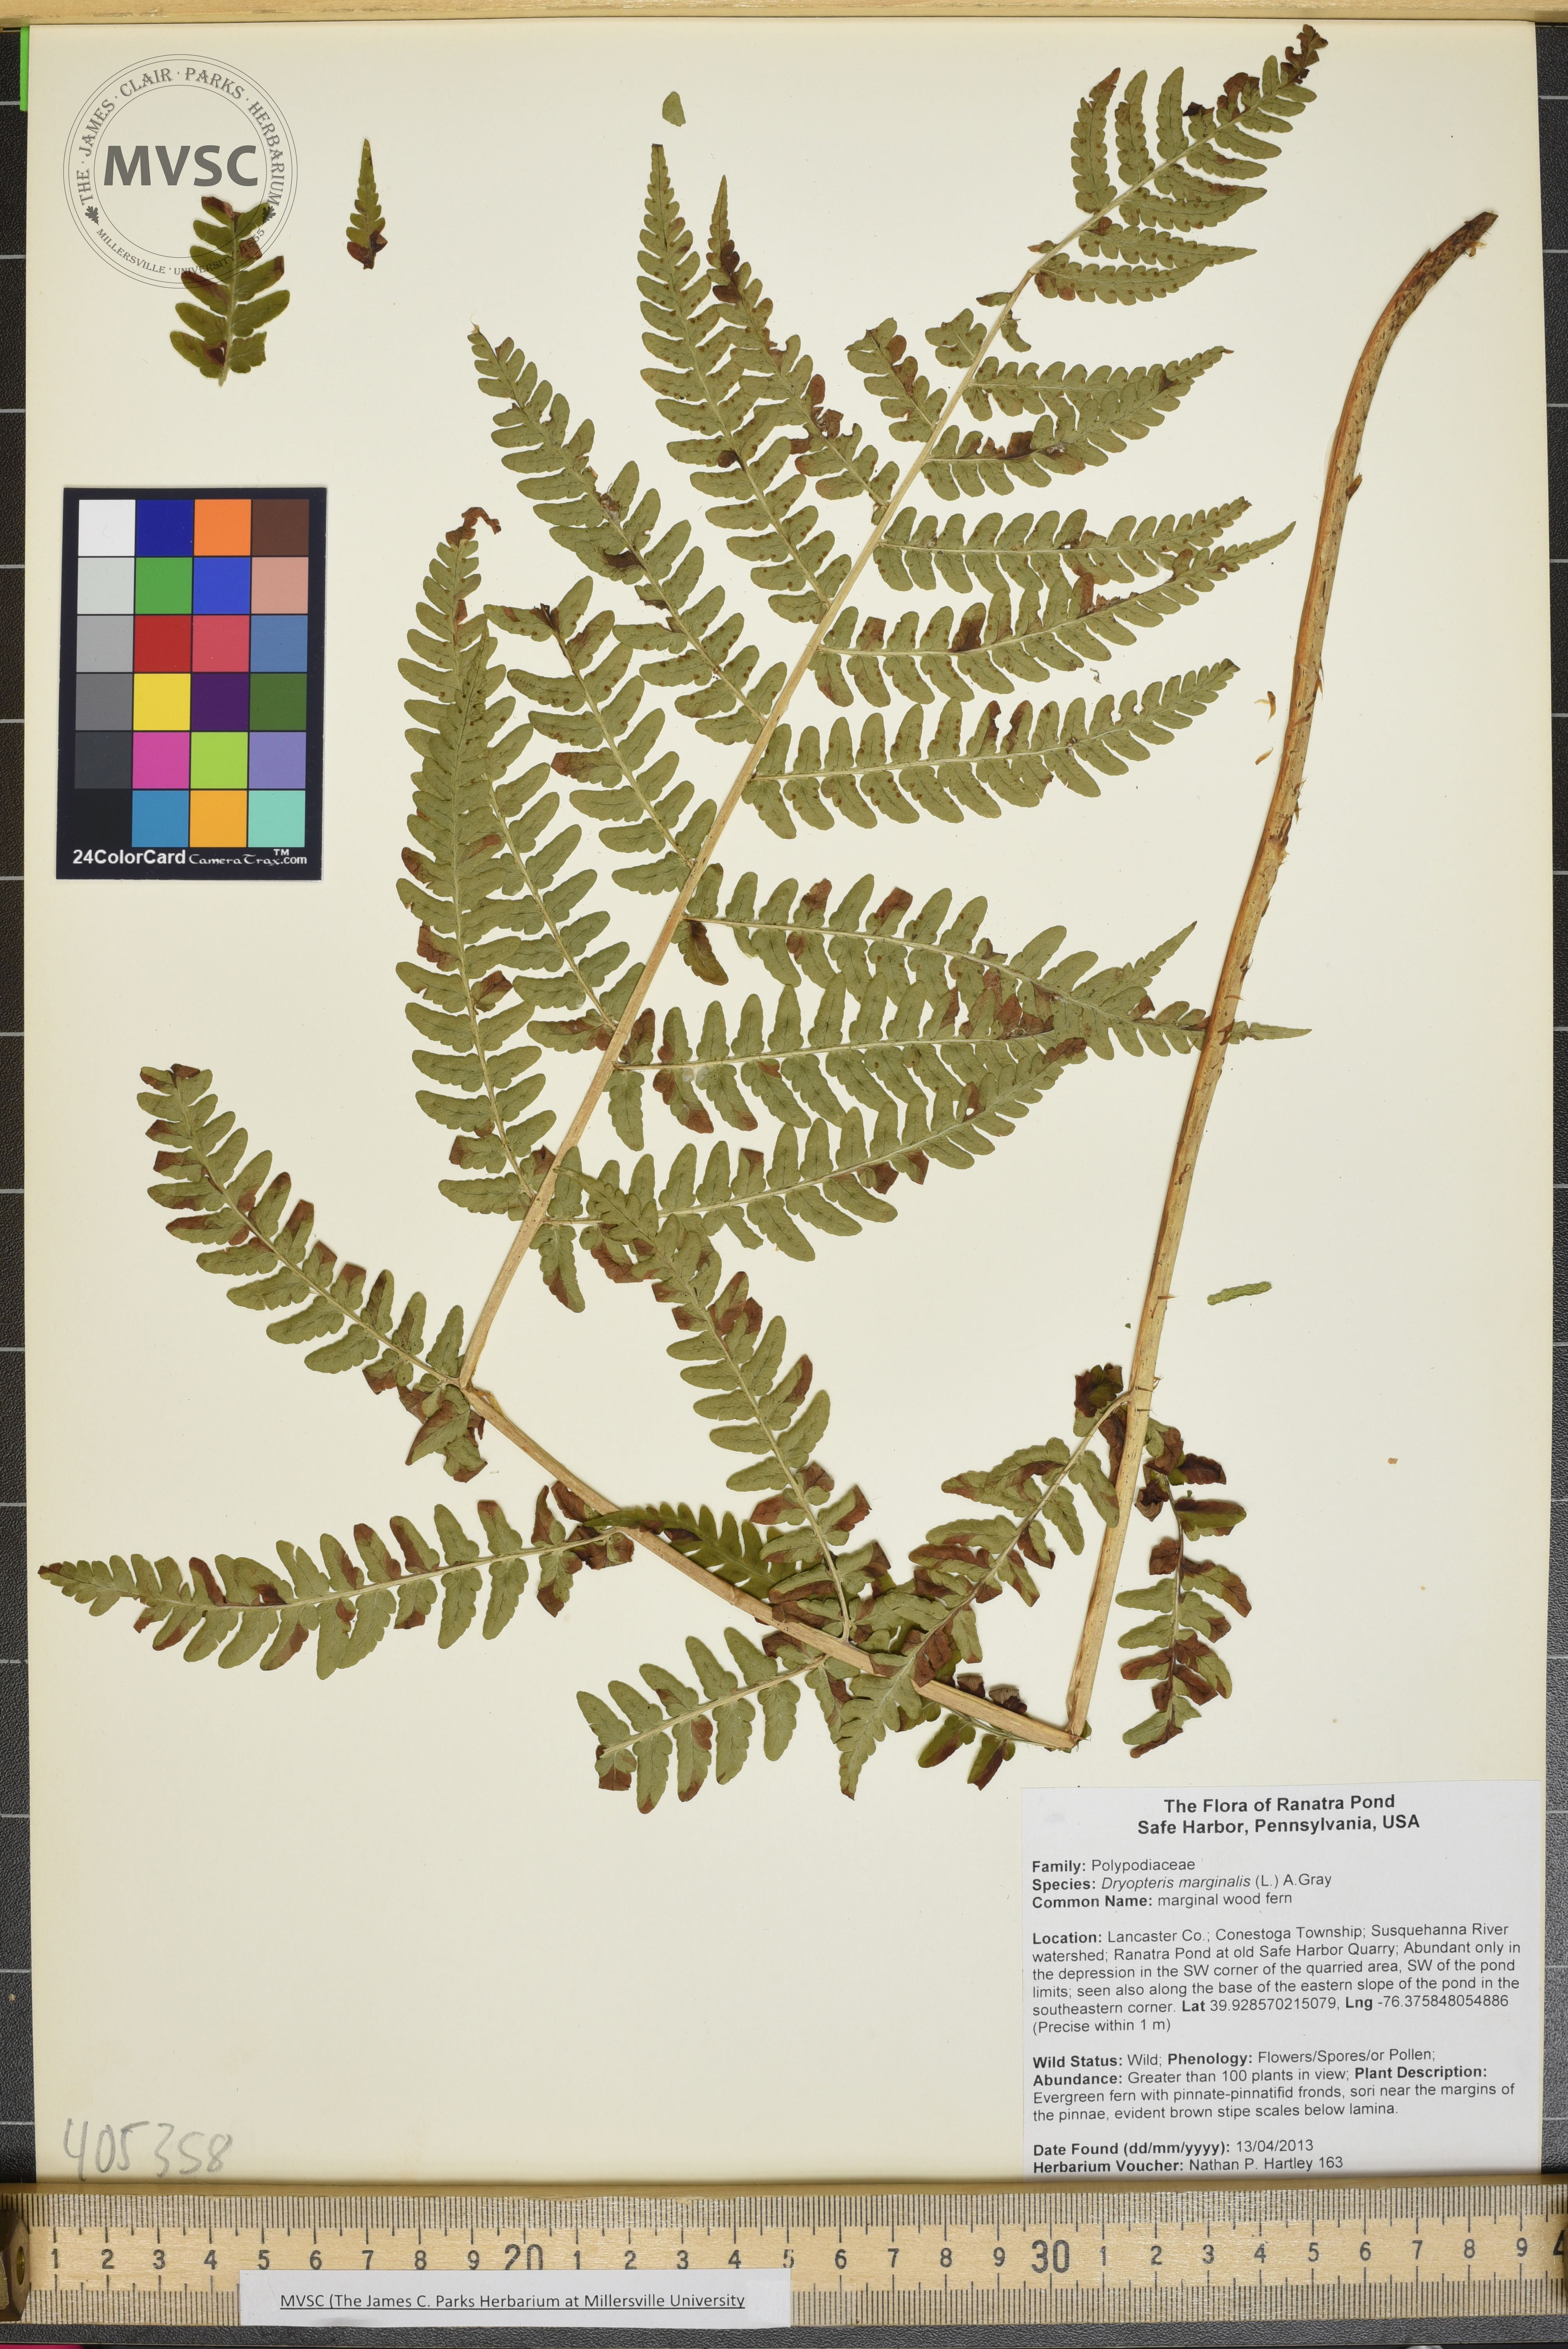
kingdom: Plantae
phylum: Tracheophyta
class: Polypodiopsida
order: Polypodiales
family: Dryopteridaceae
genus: Dryopteris
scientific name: Dryopteris marginalis
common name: marginal wood fern
